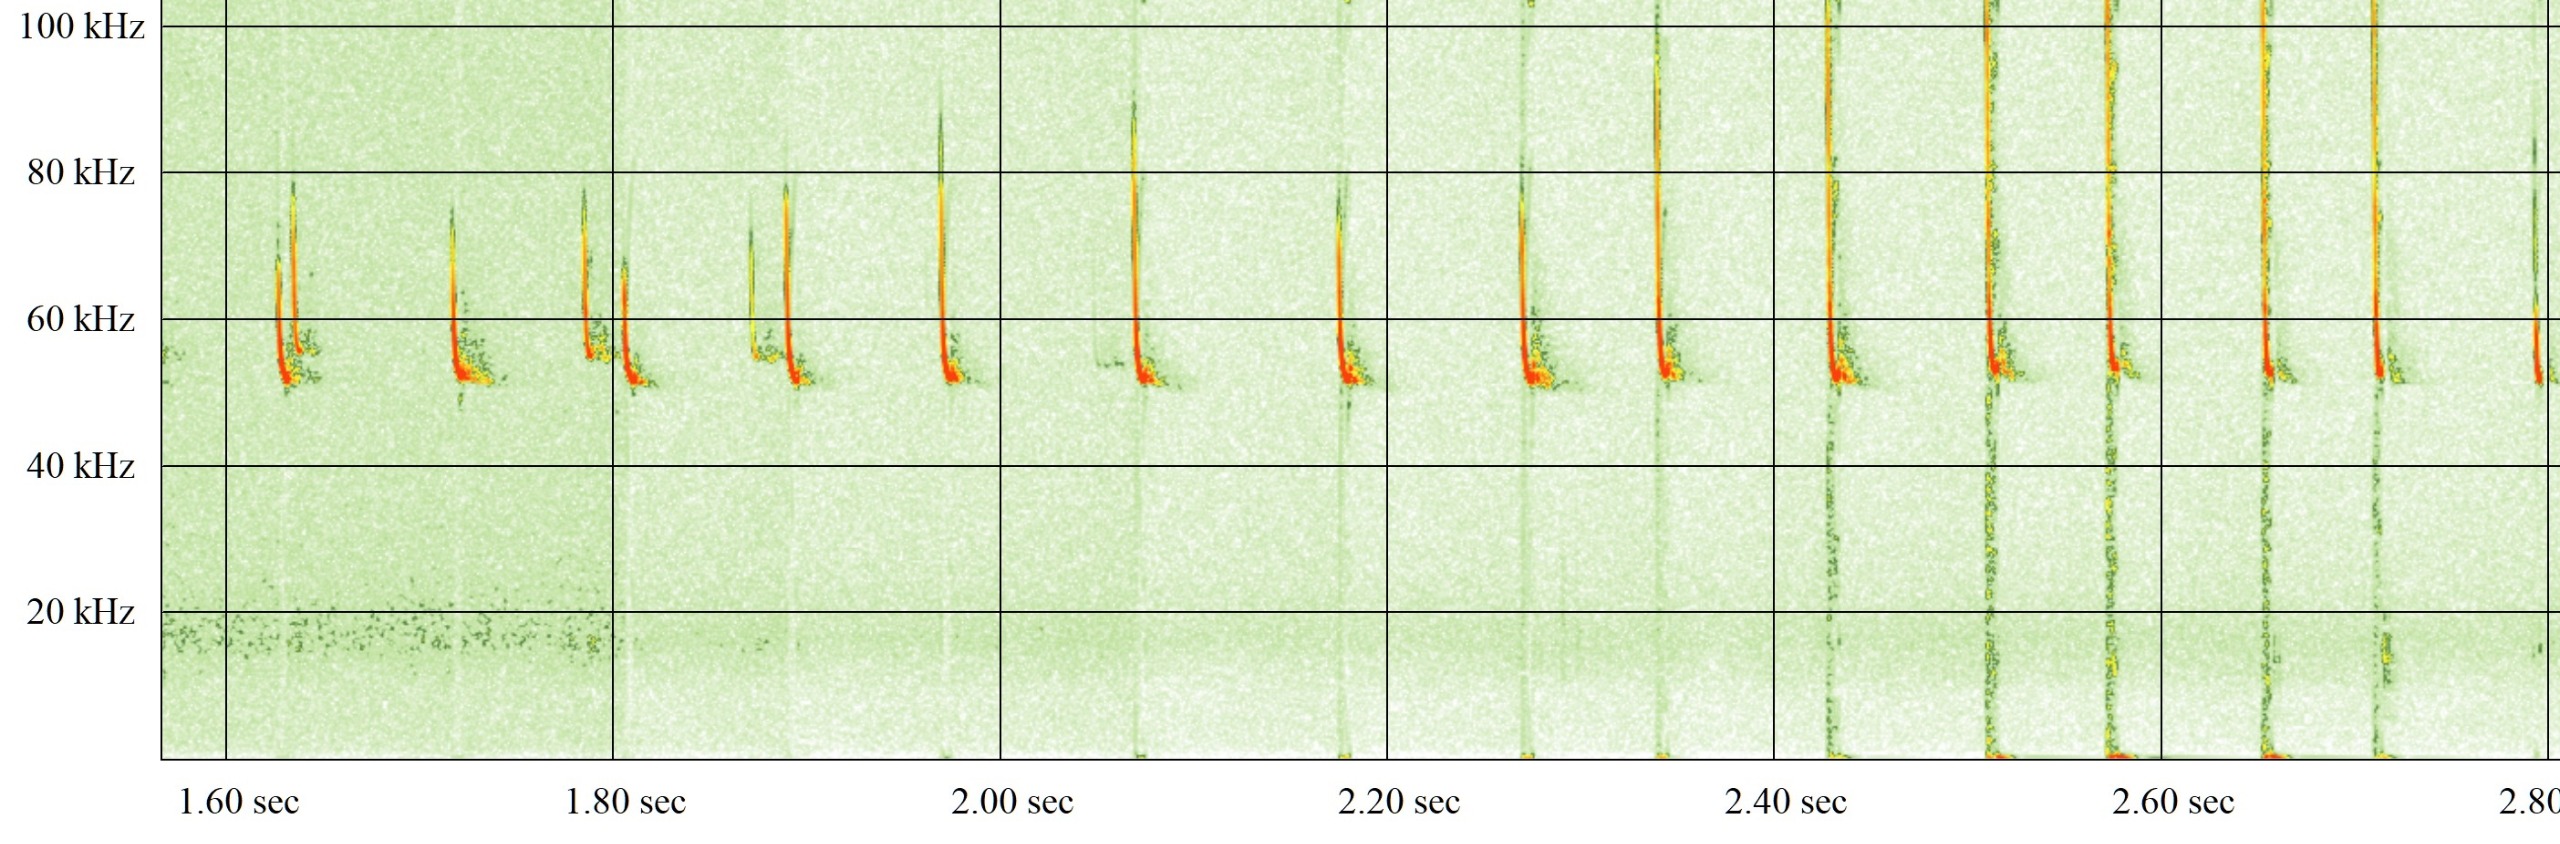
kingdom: Animalia
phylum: Chordata
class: Mammalia
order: Chiroptera
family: Vespertilionidae
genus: Pipistrellus
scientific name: Pipistrellus pygmaeus
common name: Dværgflagermus
